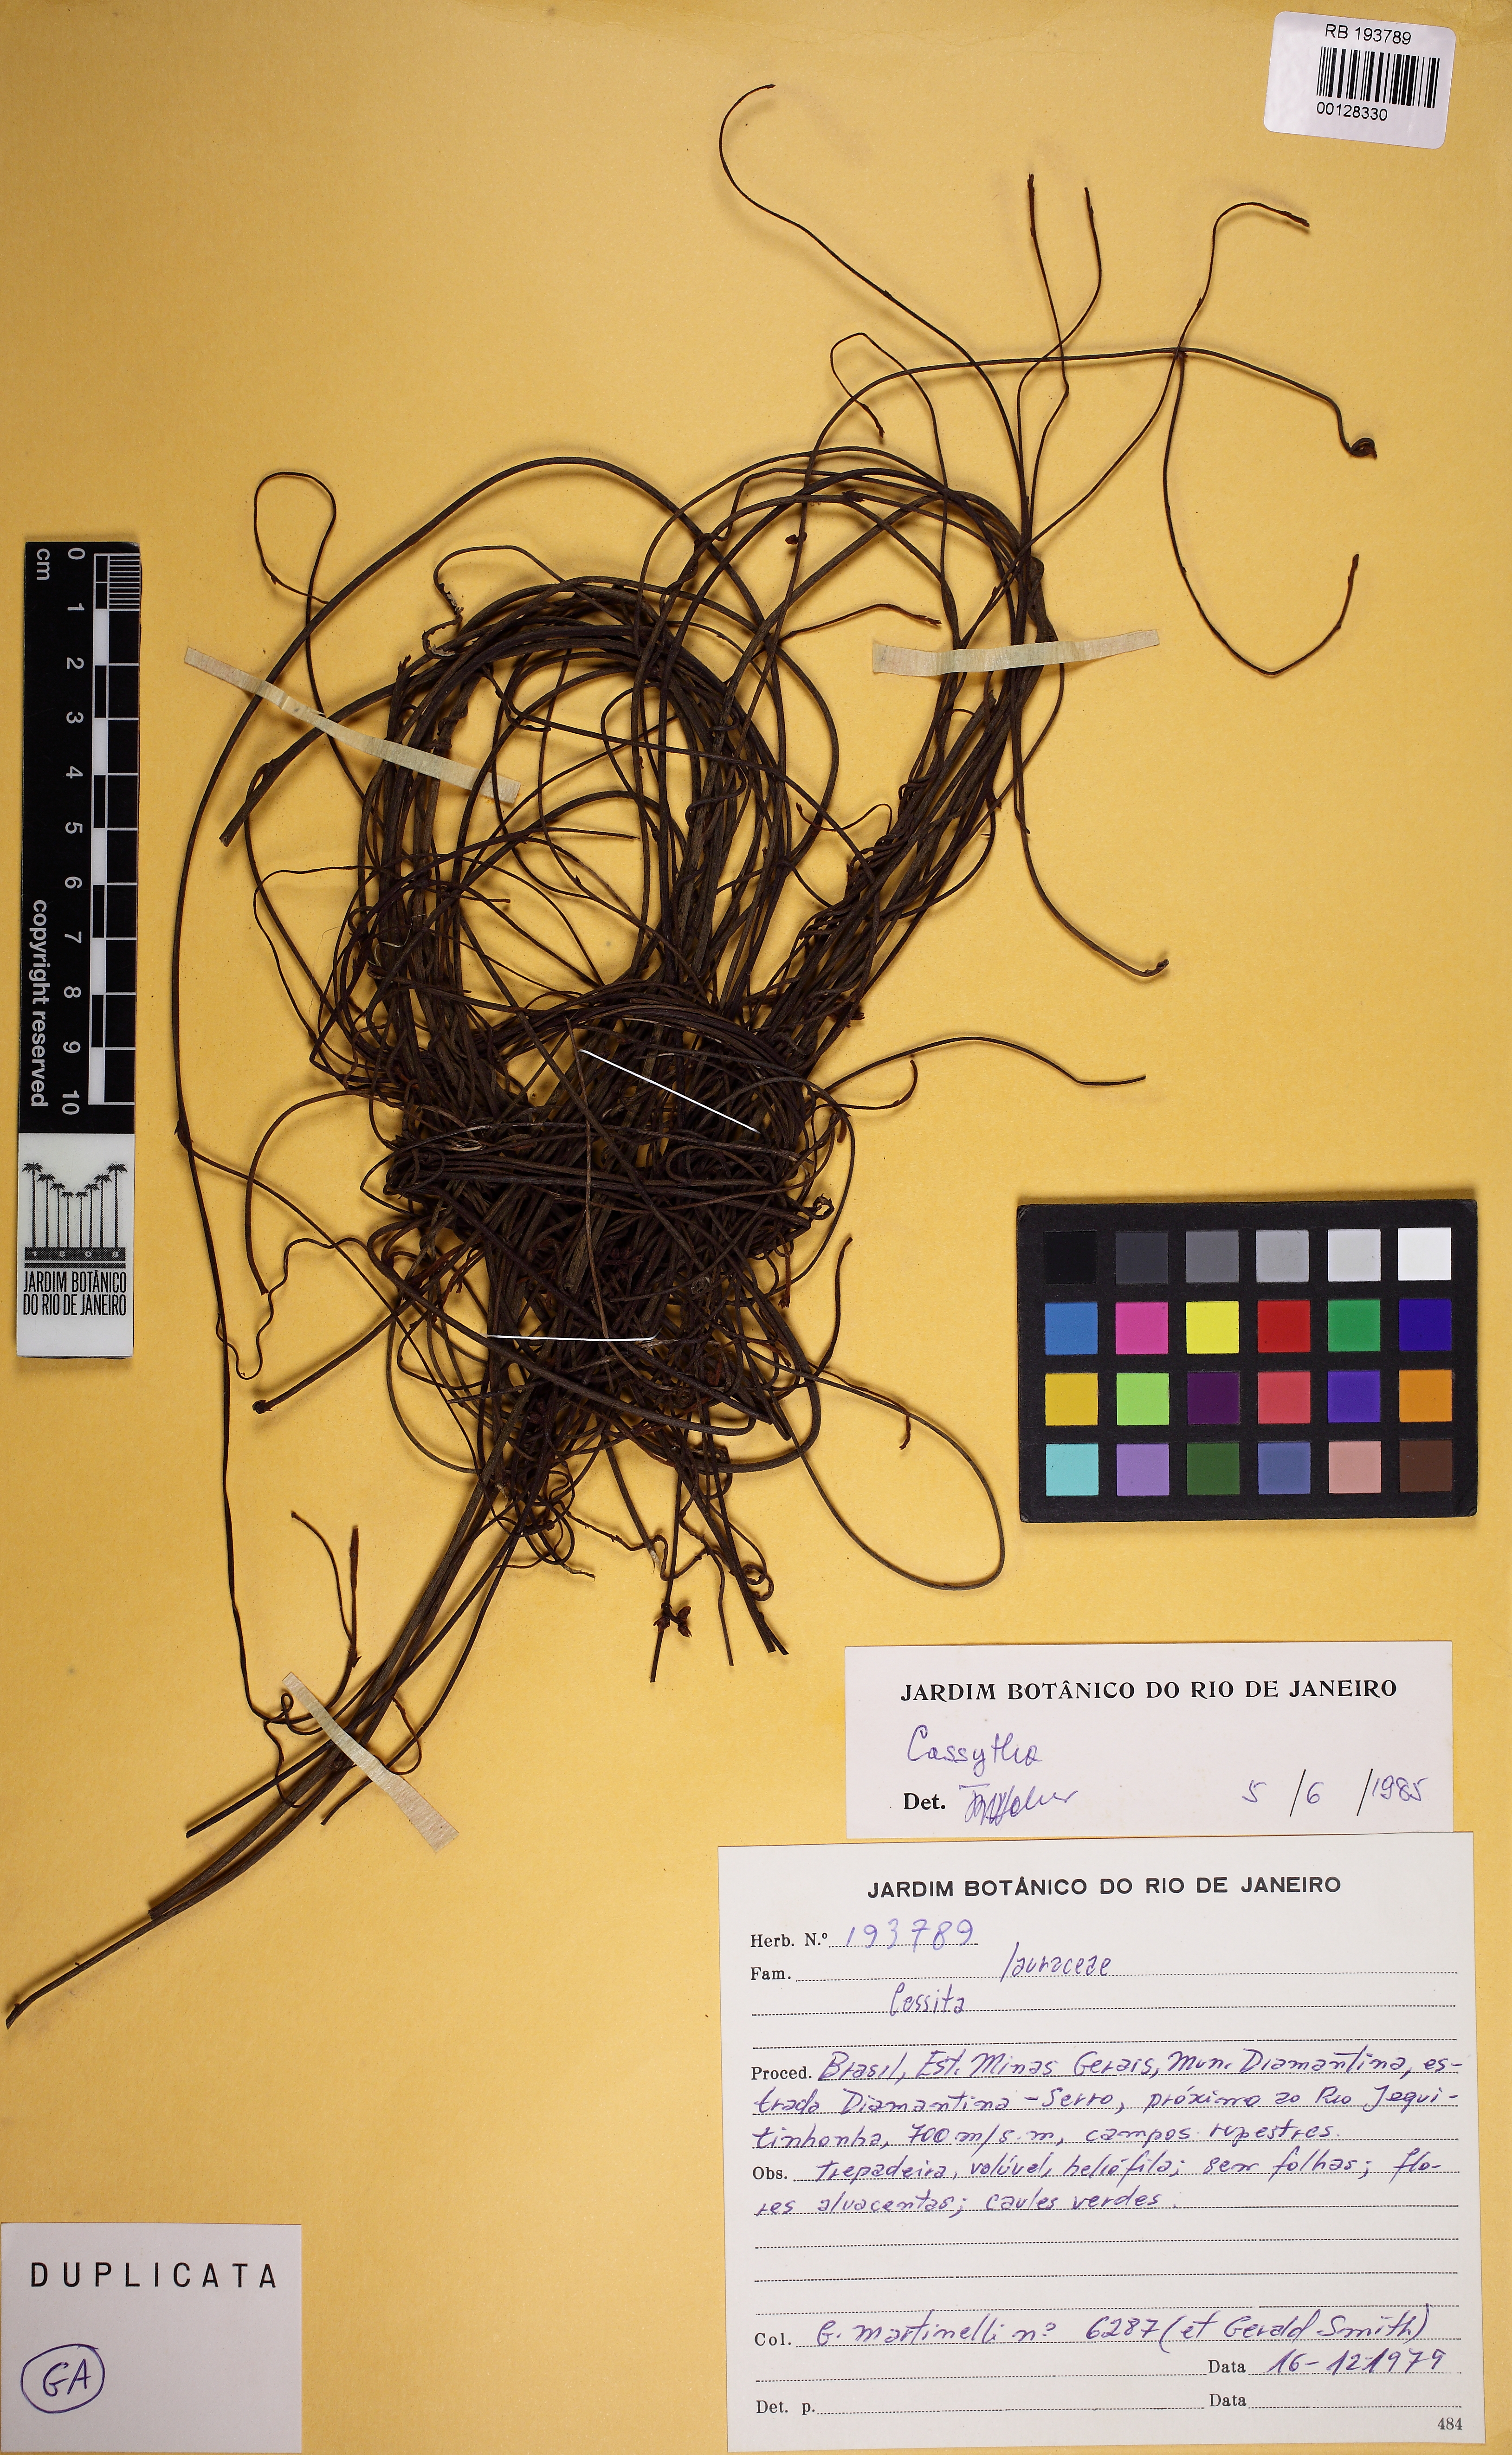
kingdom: Plantae
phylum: Tracheophyta
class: Magnoliopsida
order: Laurales
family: Lauraceae
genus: Cassytha
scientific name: Cassytha filiformis
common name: Dodder-laurel
